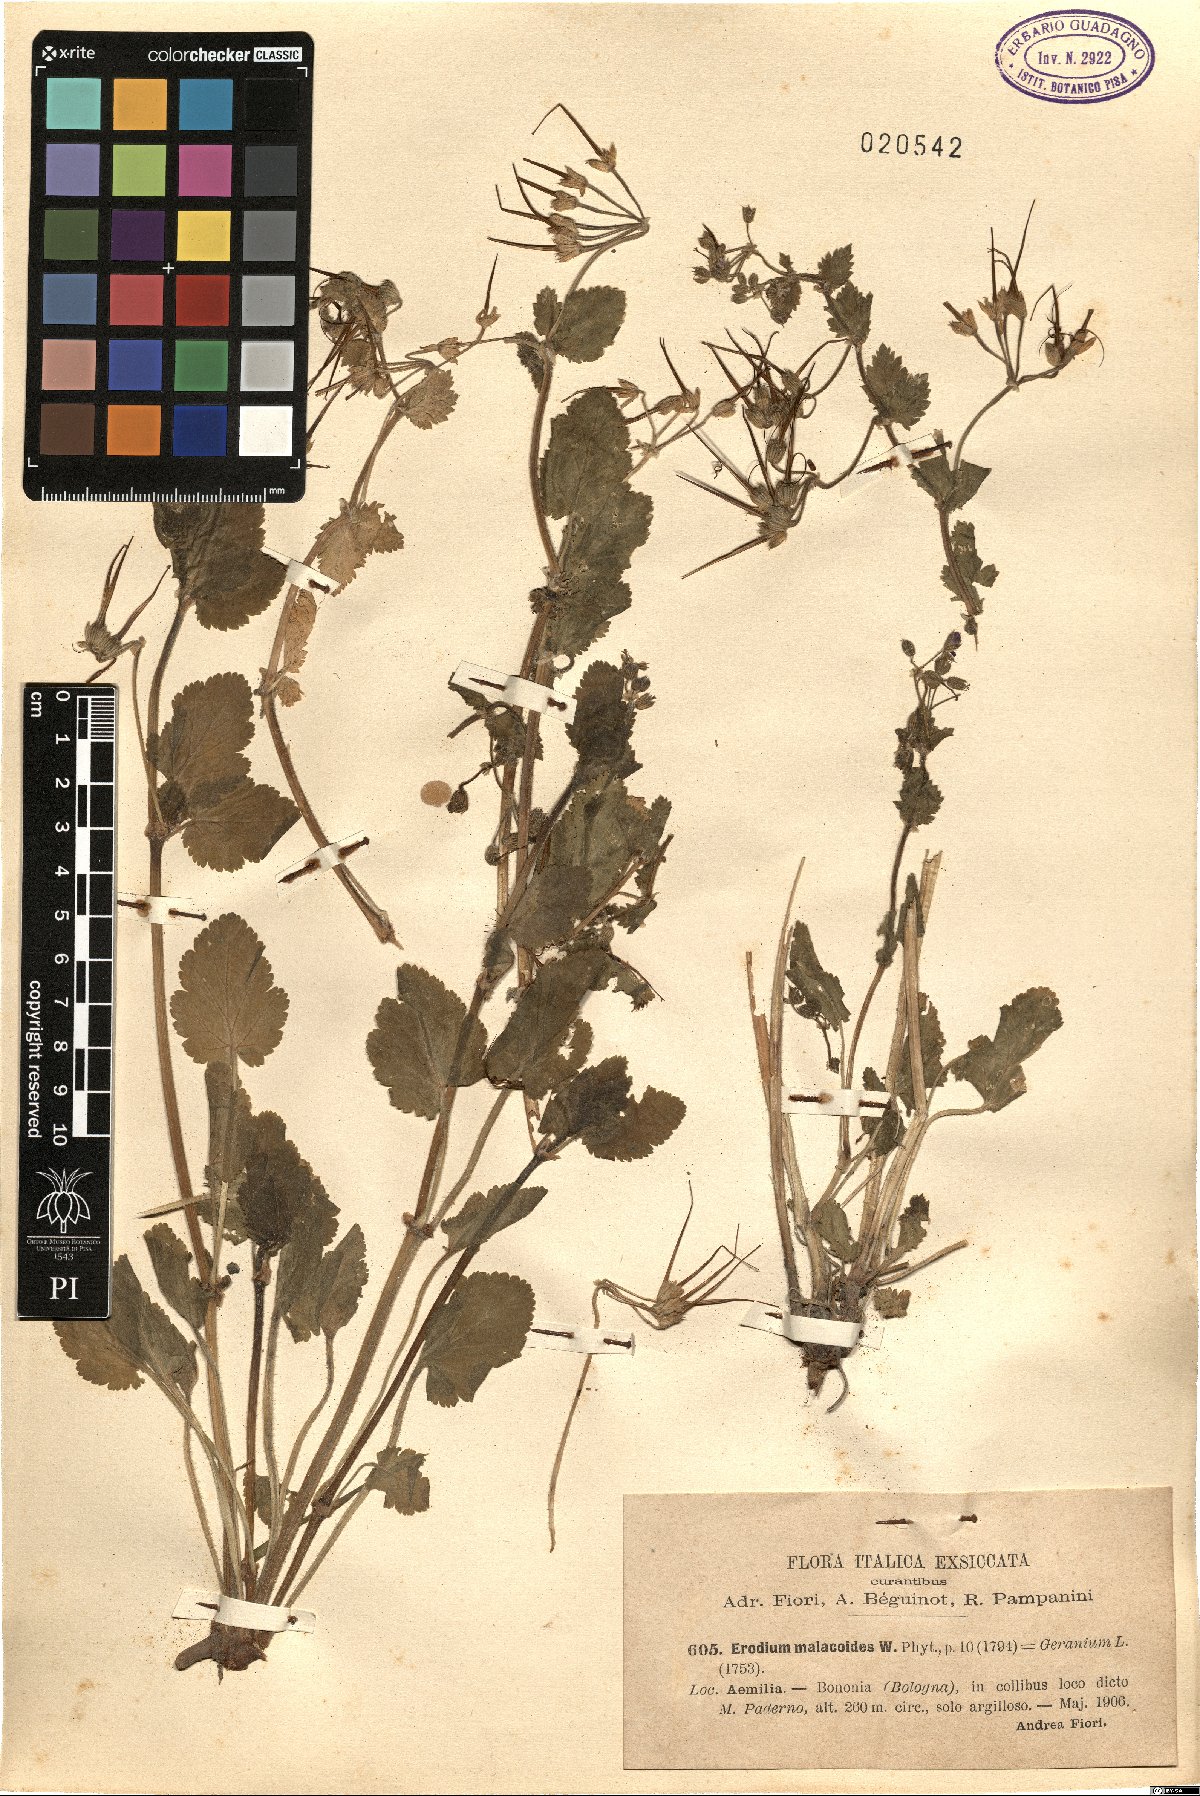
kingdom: Plantae
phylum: Tracheophyta
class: Magnoliopsida
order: Geraniales
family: Geraniaceae
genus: Erodium
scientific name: Erodium malacoides
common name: Soft stork's-bill
